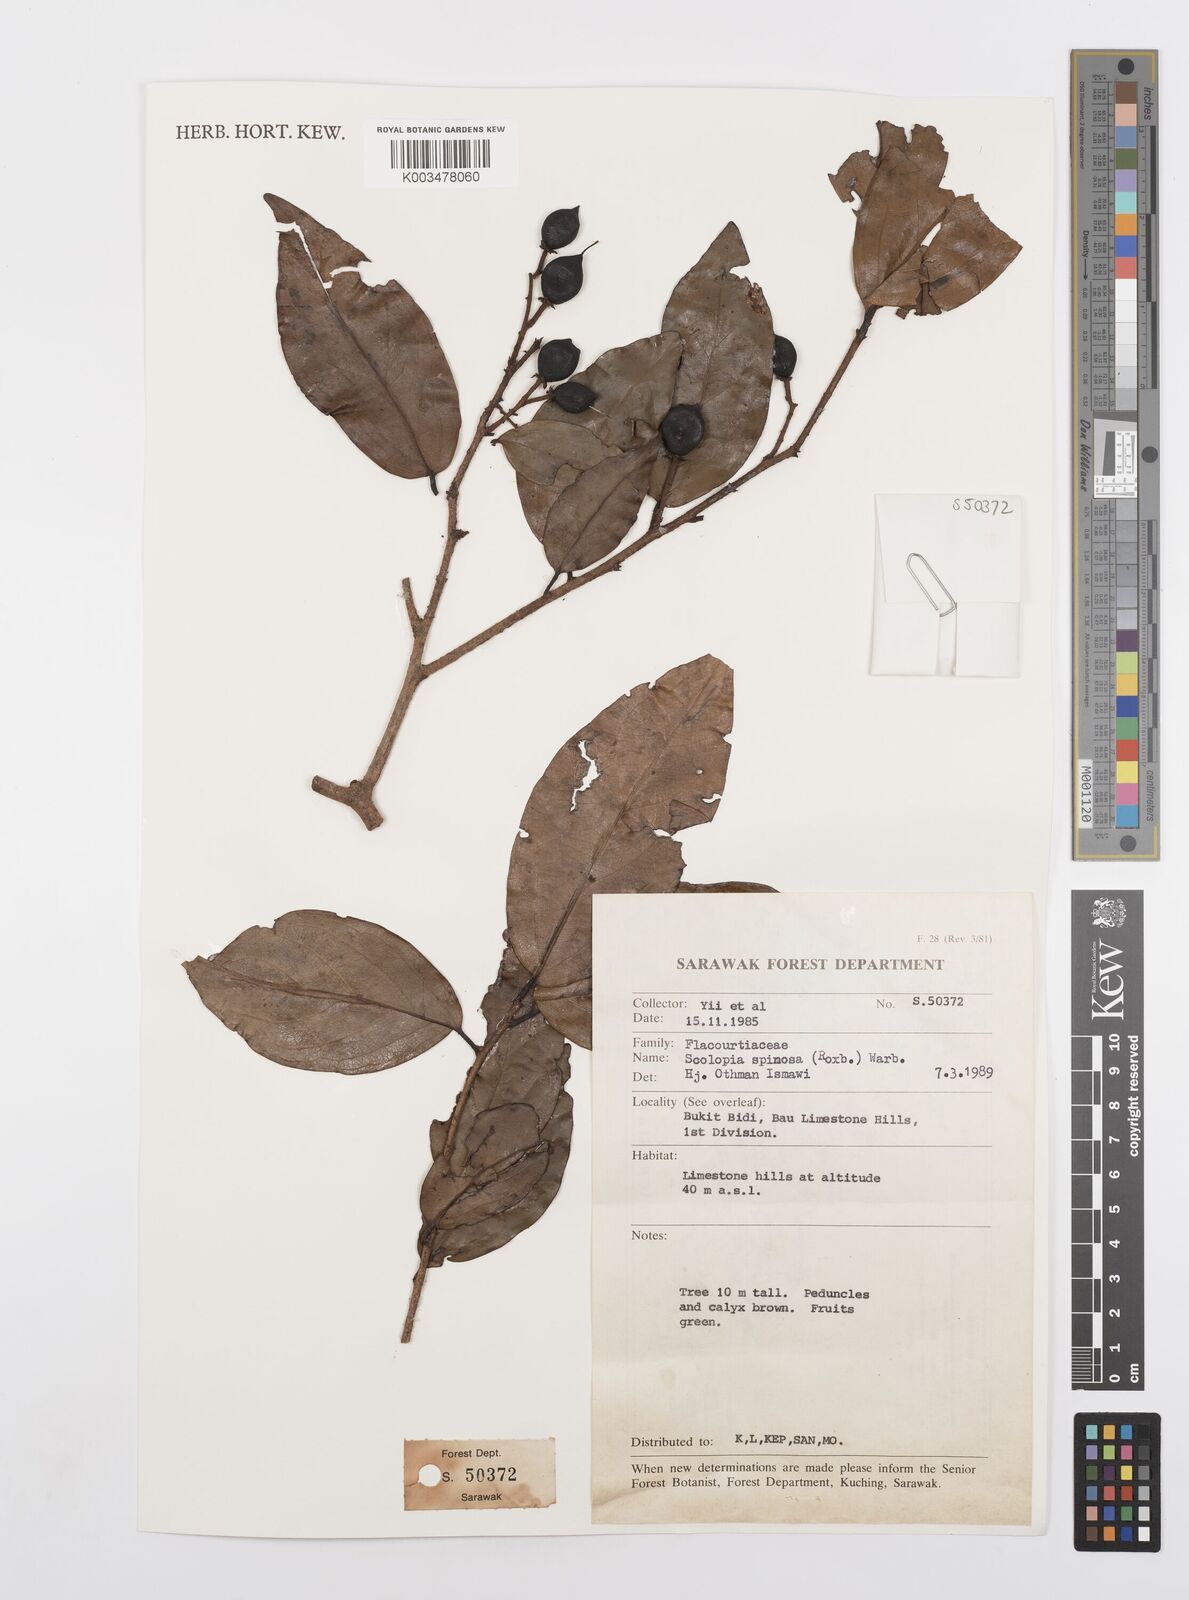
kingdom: Plantae
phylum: Tracheophyta
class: Magnoliopsida
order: Malpighiales
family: Salicaceae
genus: Scolopia
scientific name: Scolopia spinosa
